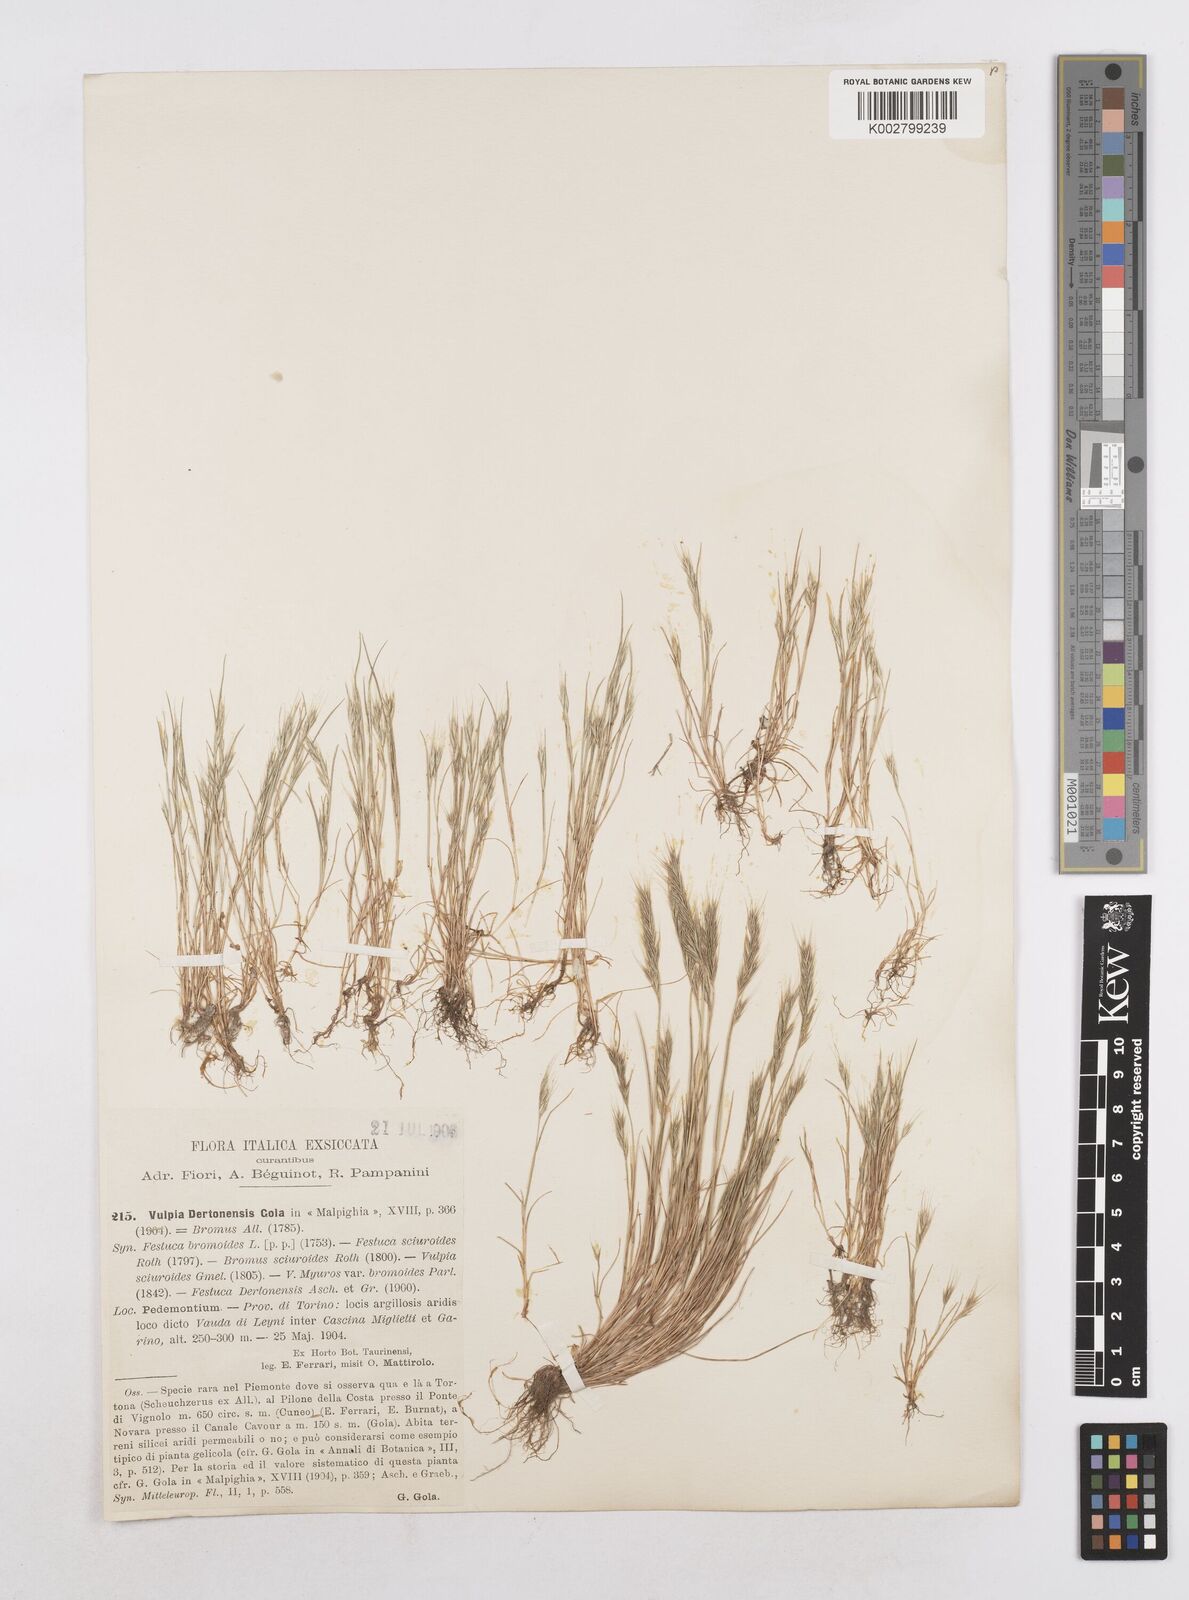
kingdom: Plantae
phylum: Tracheophyta
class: Liliopsida
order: Poales
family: Poaceae
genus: Festuca
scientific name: Festuca bromoides
